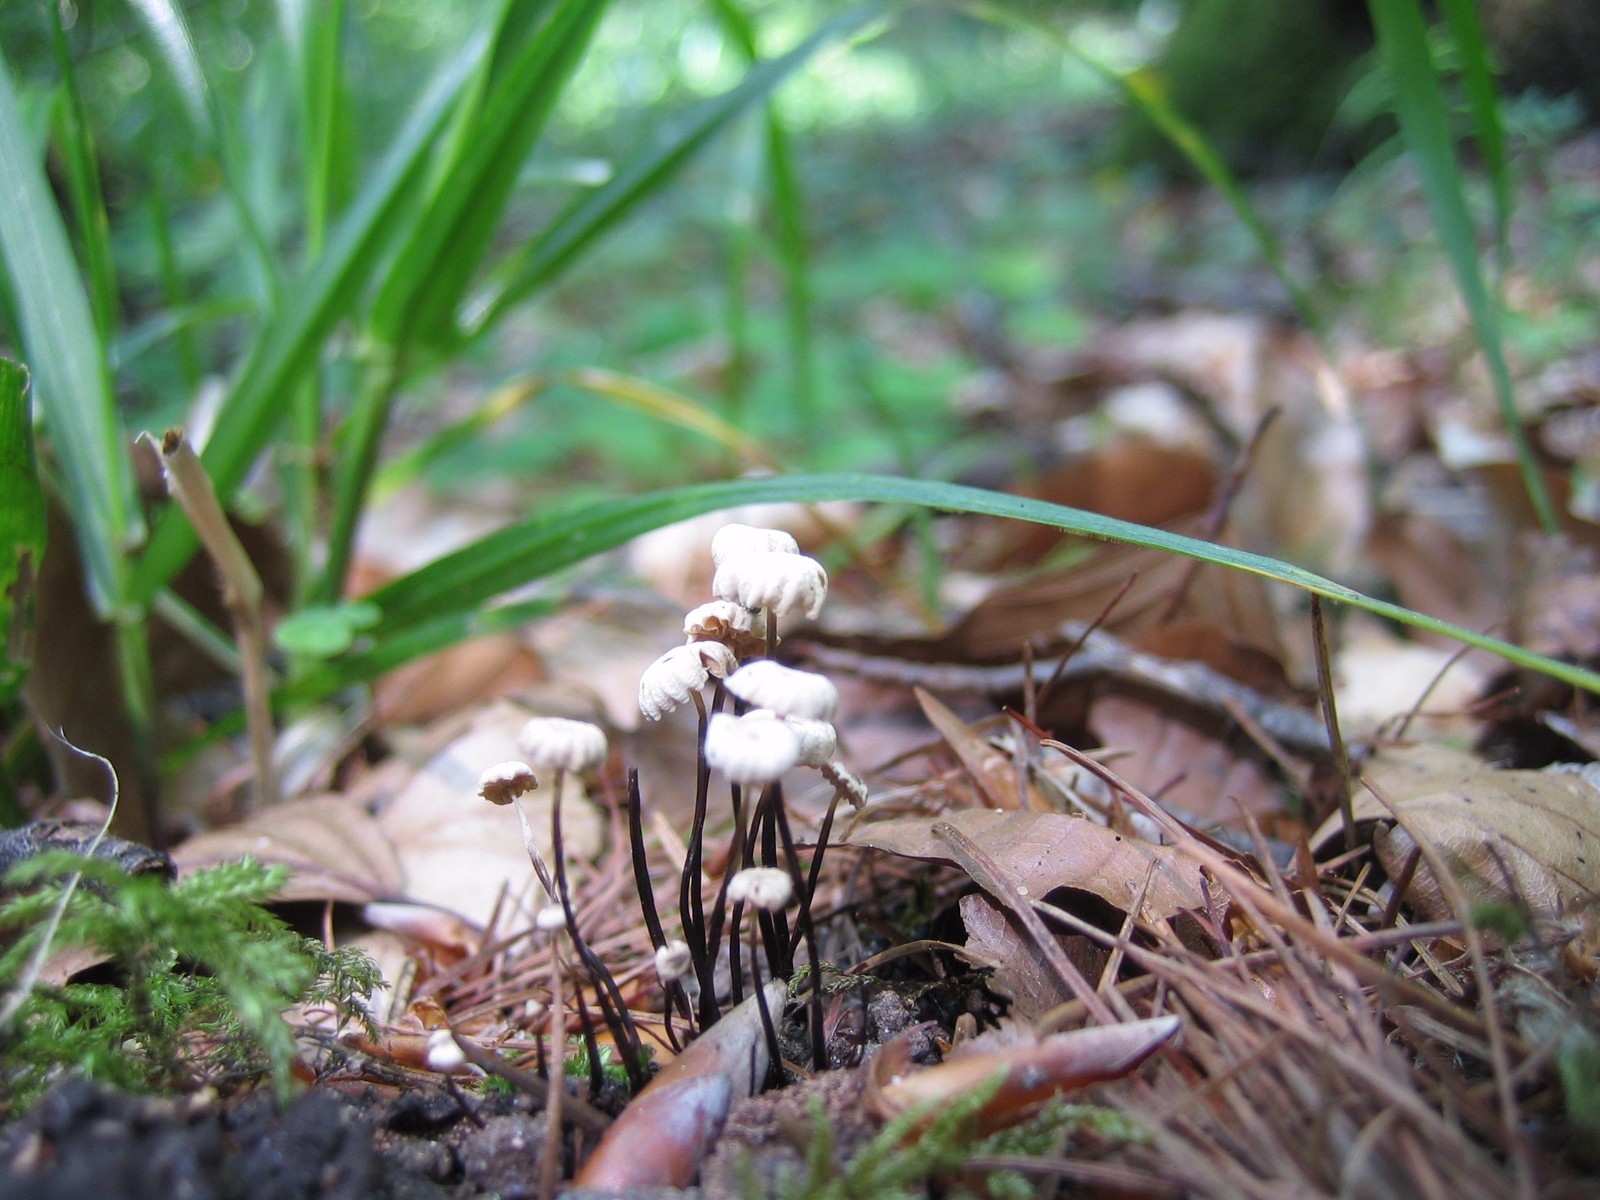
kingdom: Fungi
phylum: Basidiomycota
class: Agaricomycetes
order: Agaricales
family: Marasmiaceae
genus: Marasmius
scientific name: Marasmius rotula
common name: hjul-bruskhat
